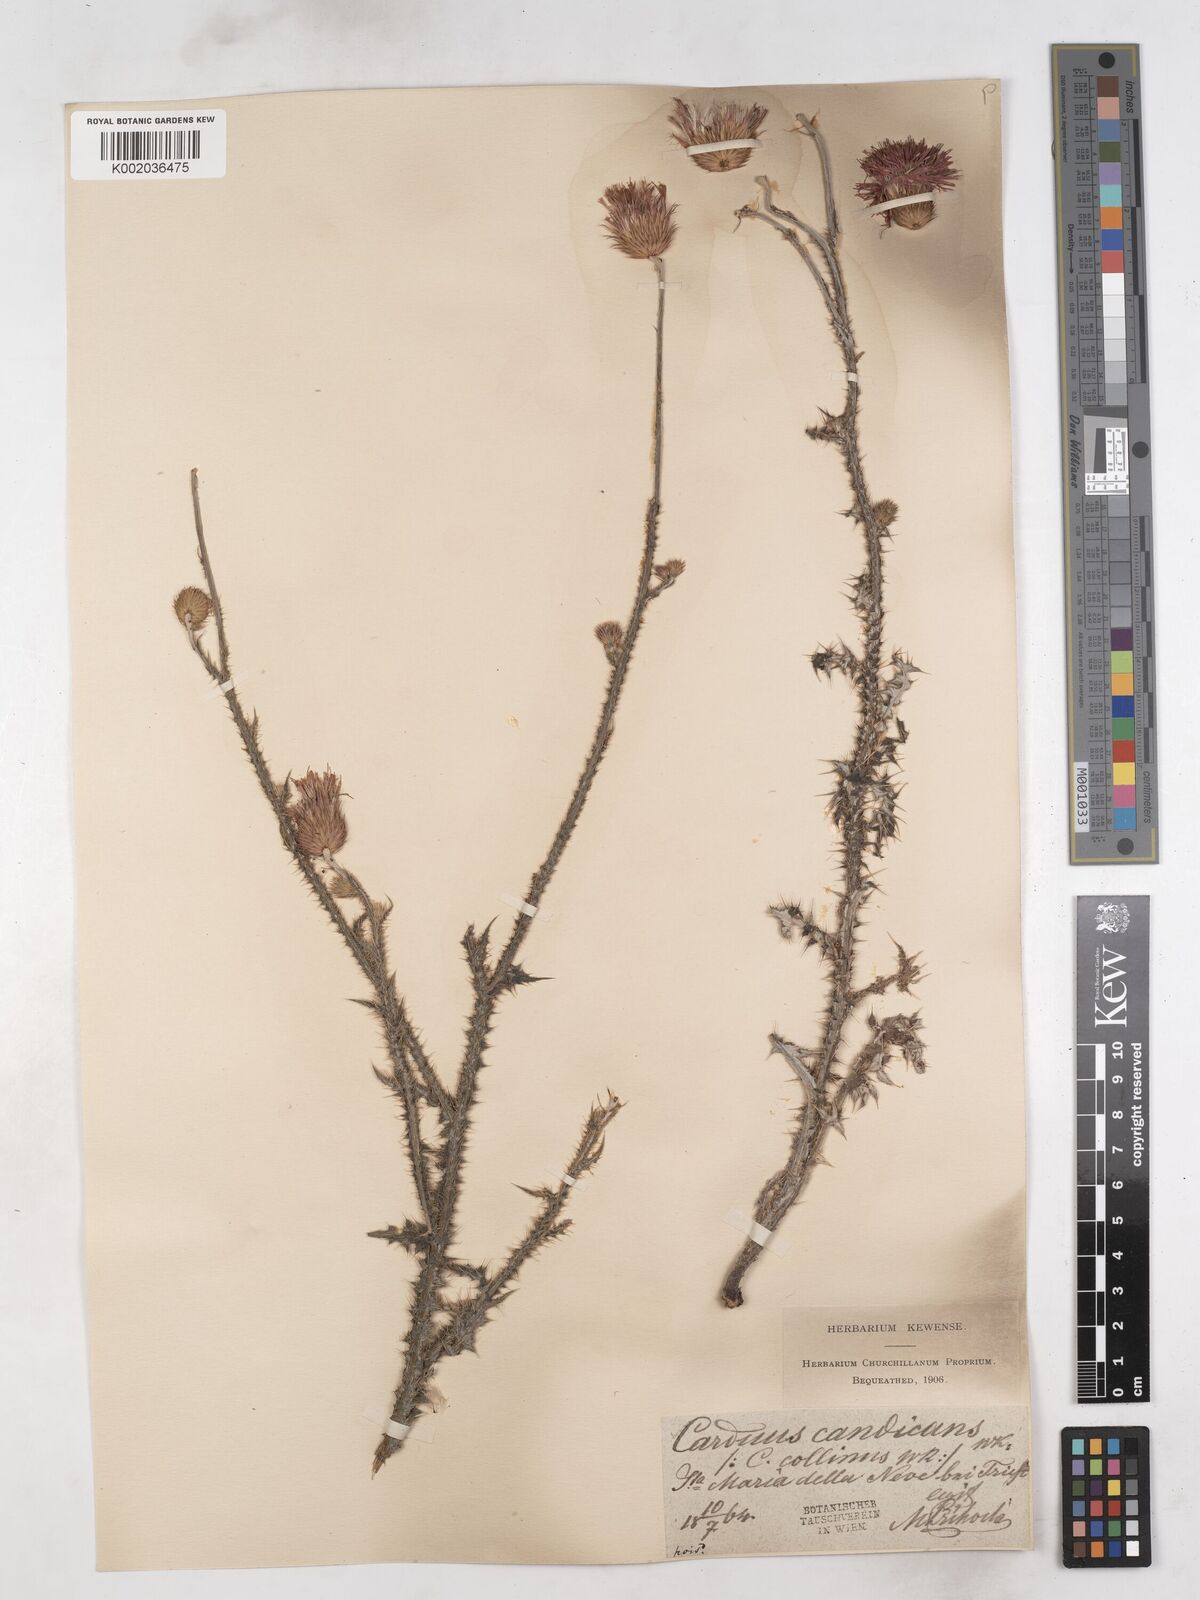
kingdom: Plantae
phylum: Tracheophyta
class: Magnoliopsida
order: Asterales
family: Asteraceae
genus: Carduus
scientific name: Carduus candicans
